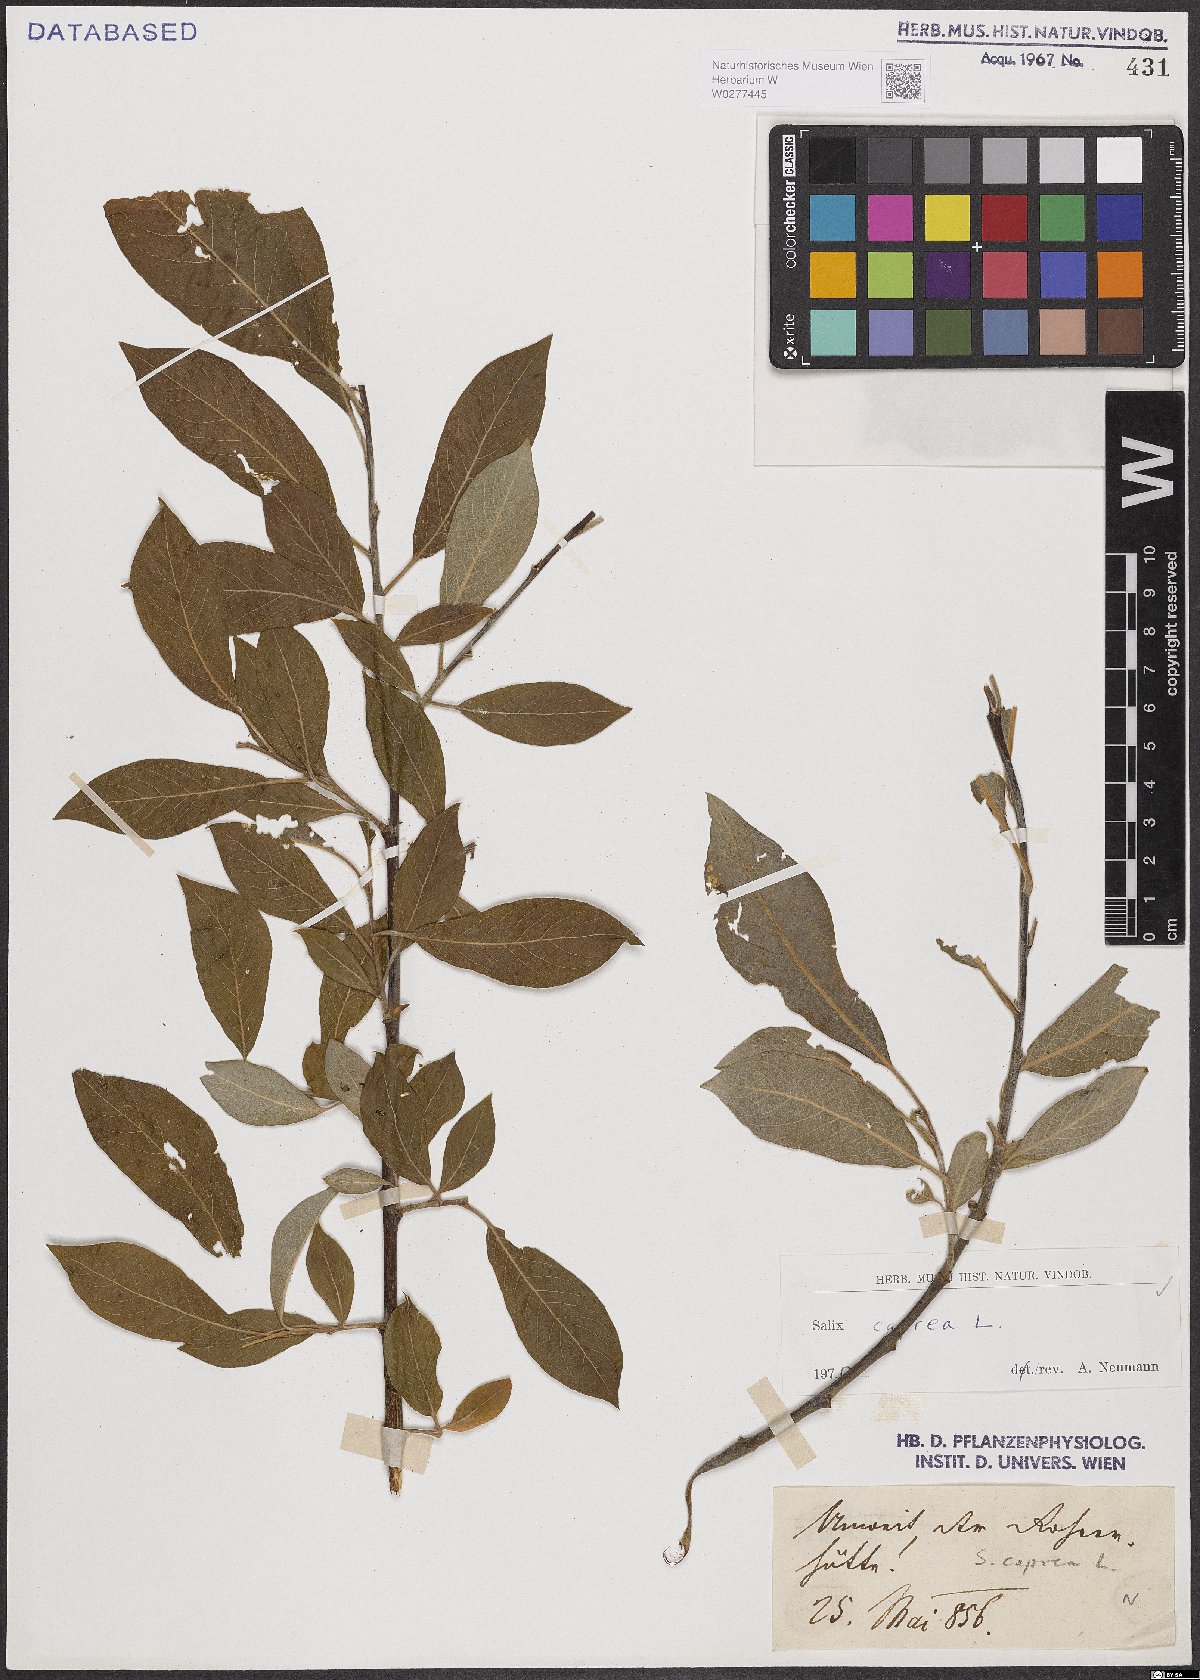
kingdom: Plantae
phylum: Tracheophyta
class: Magnoliopsida
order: Malpighiales
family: Salicaceae
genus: Salix
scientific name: Salix caprea
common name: Goat willow
